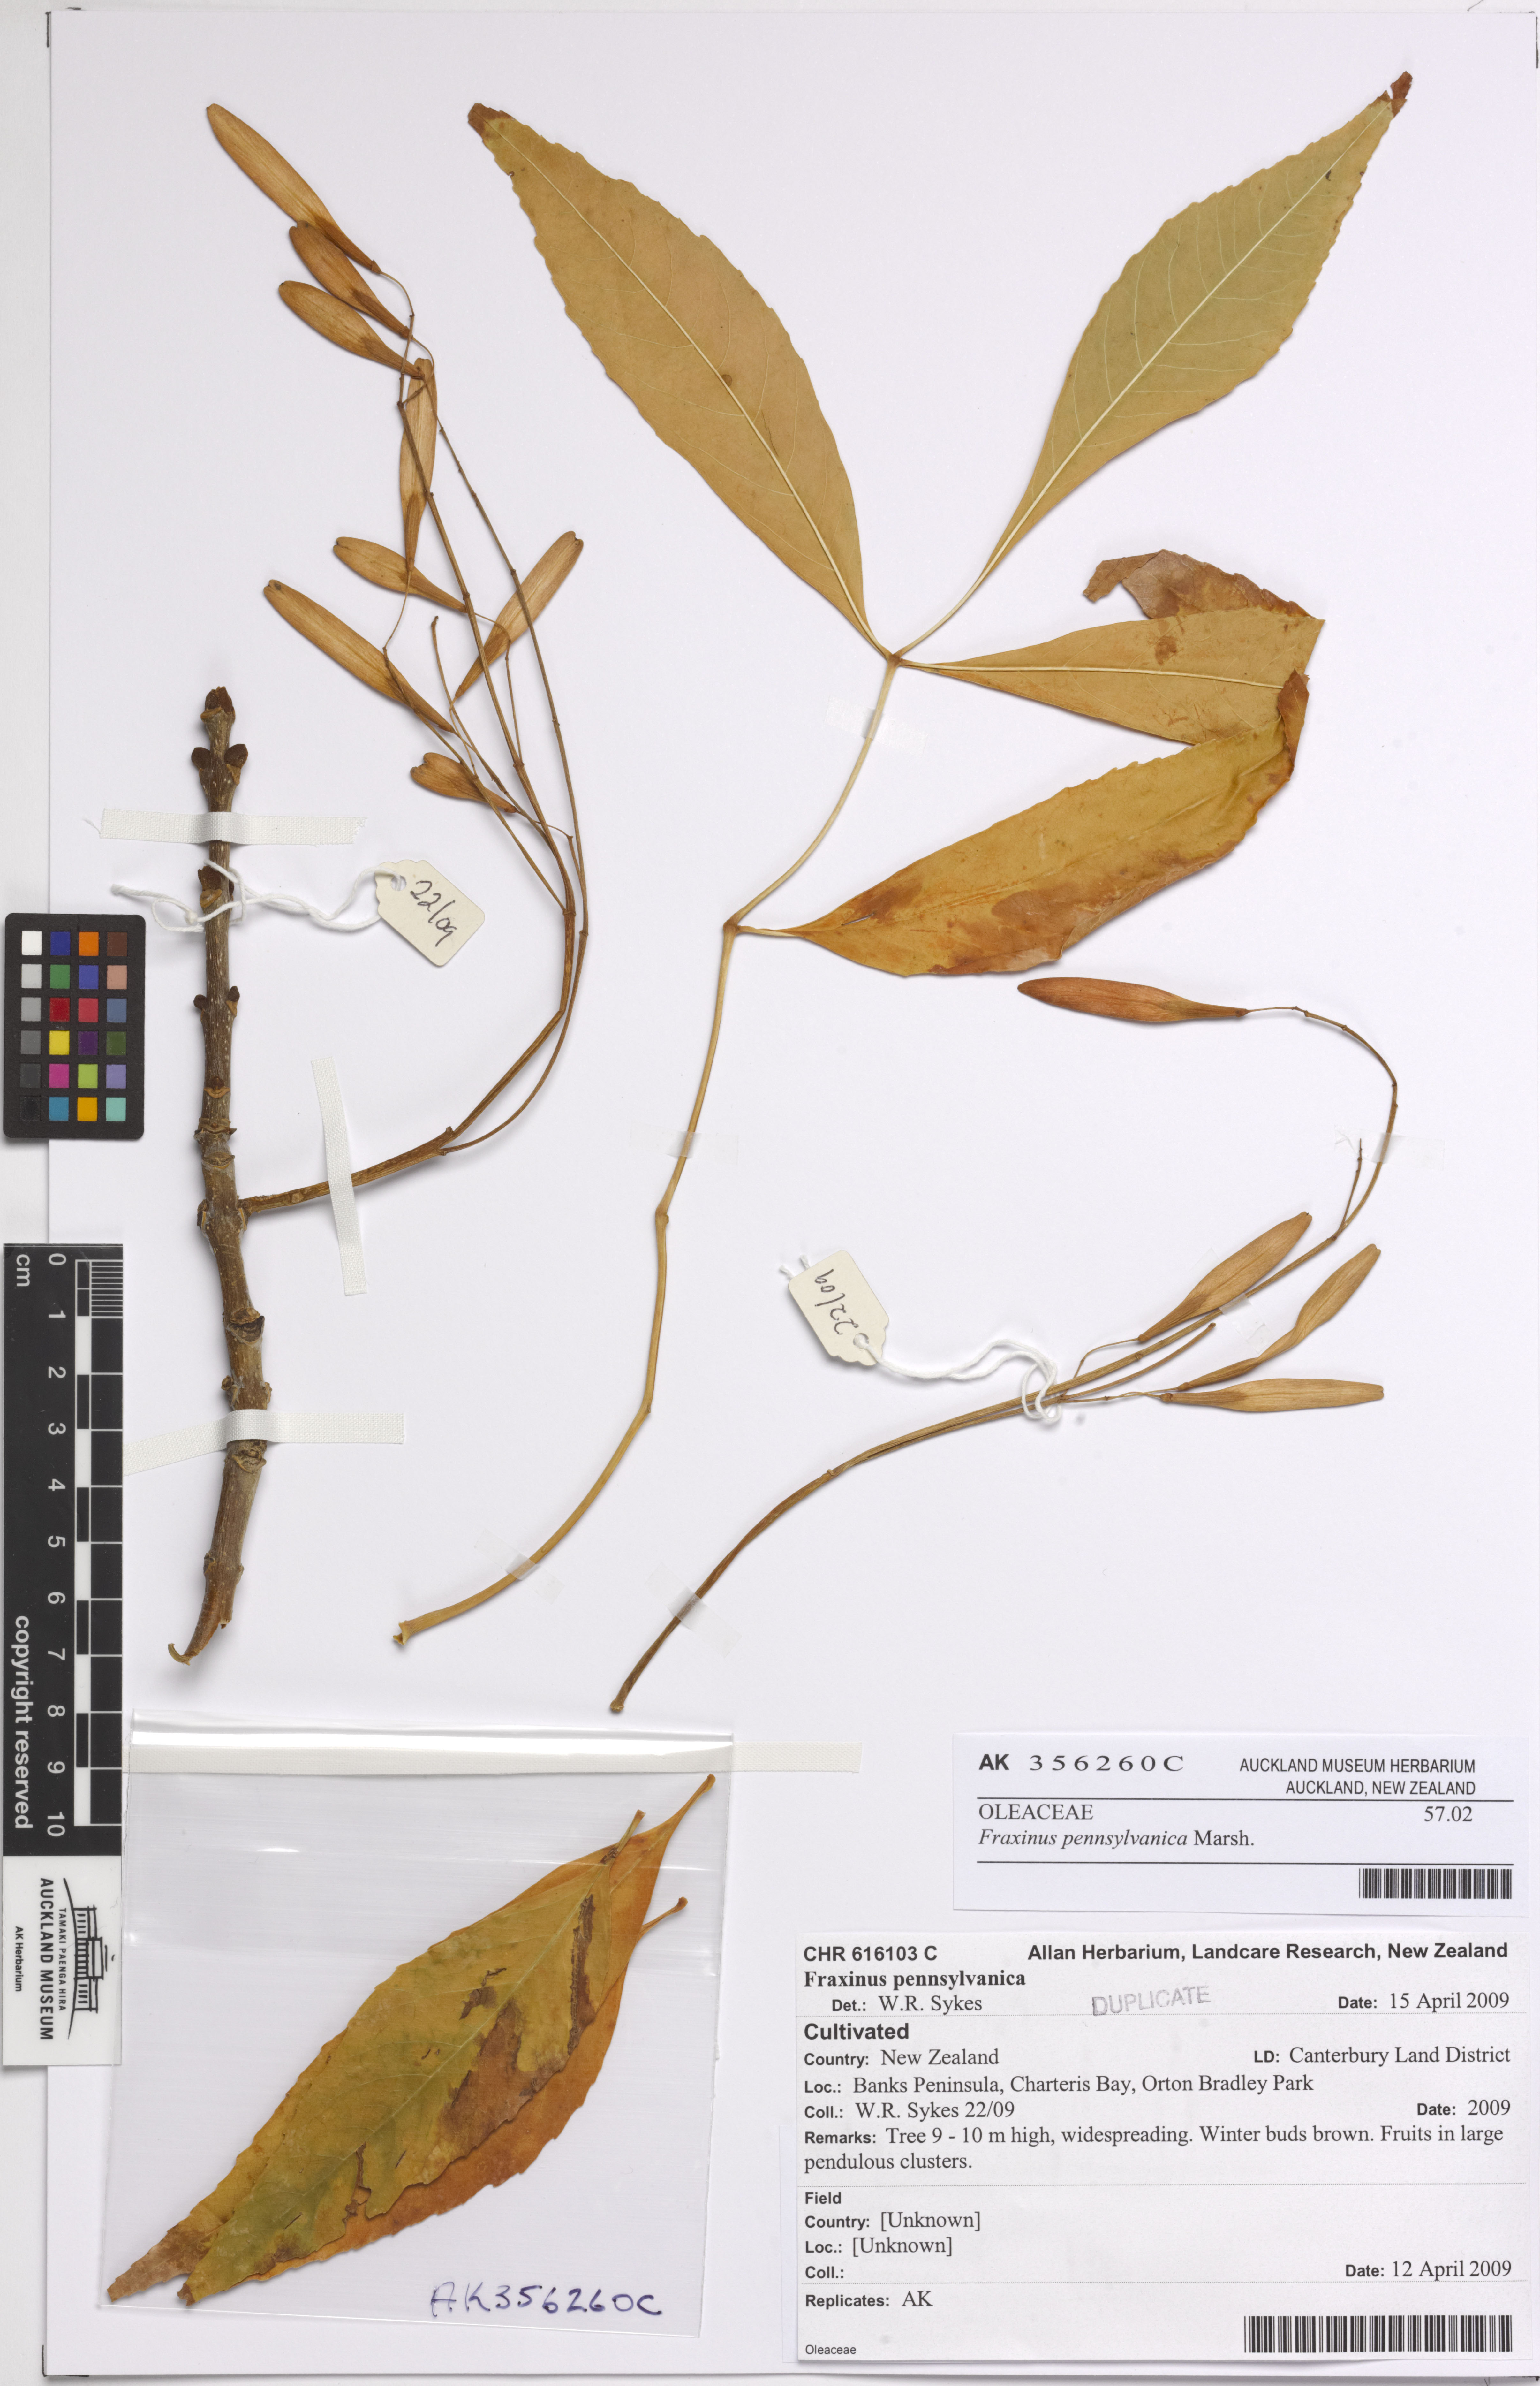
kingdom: Plantae
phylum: Tracheophyta
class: Magnoliopsida
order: Lamiales
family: Oleaceae
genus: Fraxinus
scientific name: Fraxinus pennsylvanica
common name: Green ash
